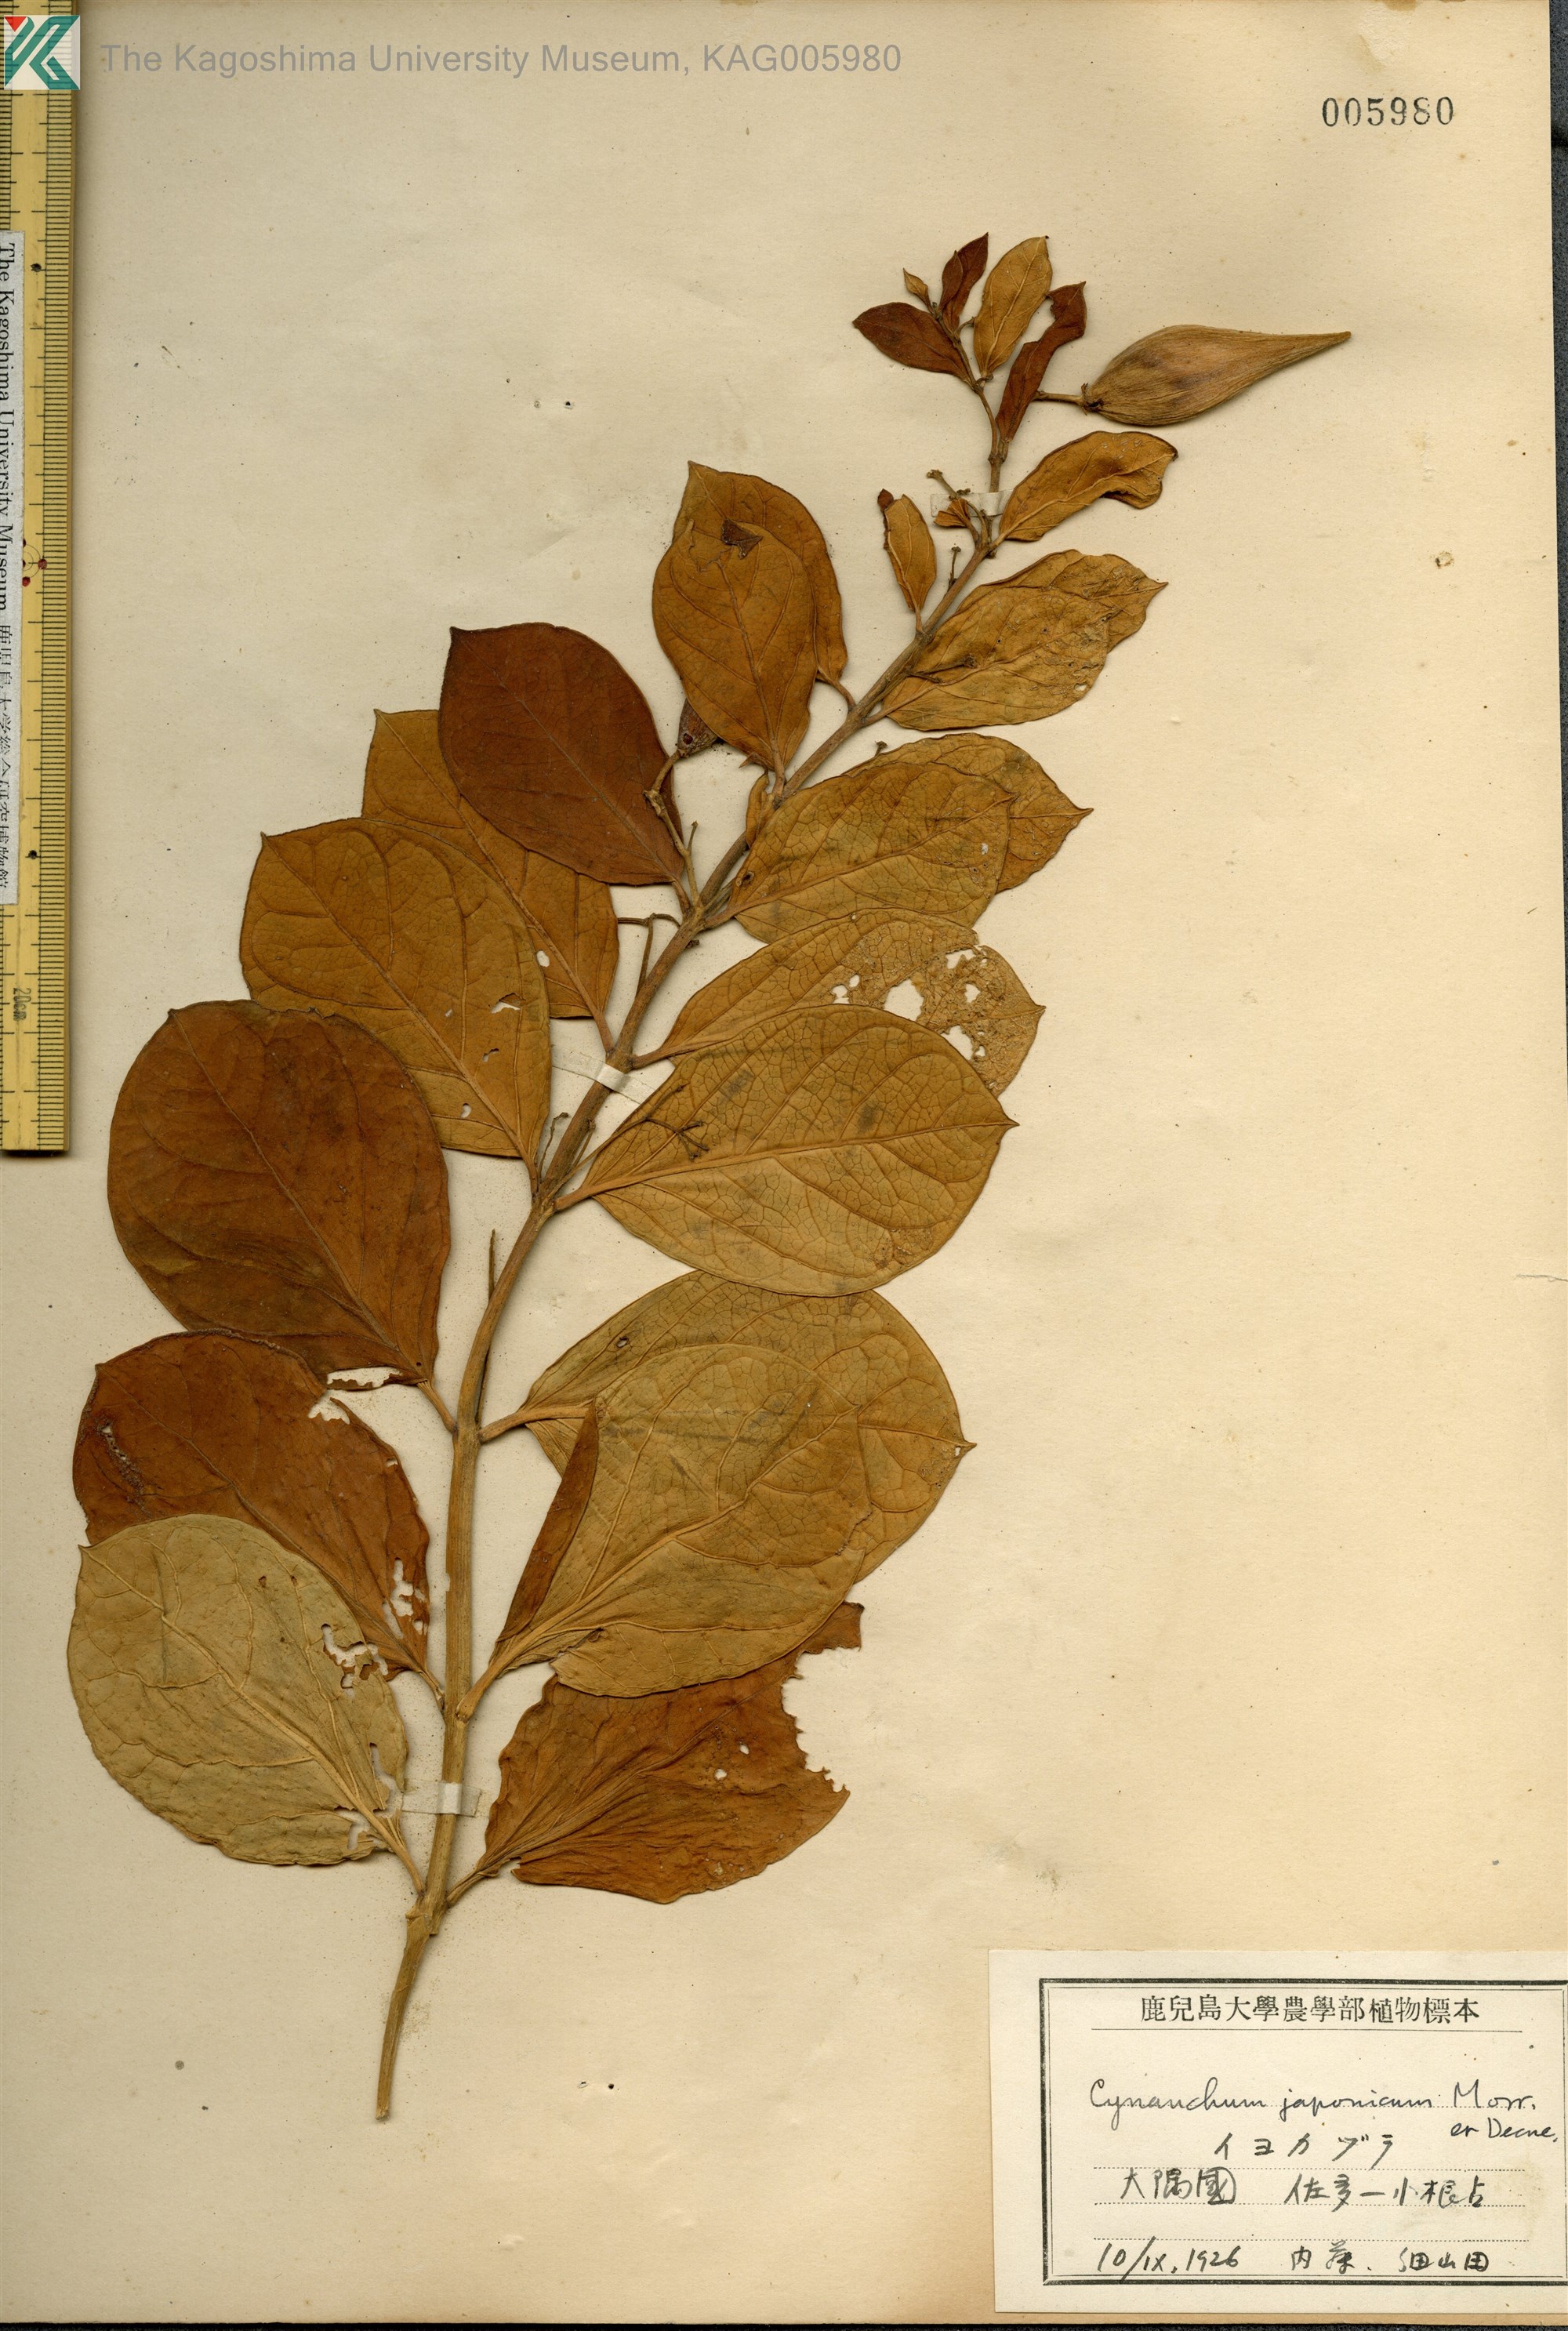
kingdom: Plantae
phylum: Tracheophyta
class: Magnoliopsida
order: Gentianales
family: Apocynaceae
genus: Vincetoxicum
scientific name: Vincetoxicum japonicum
